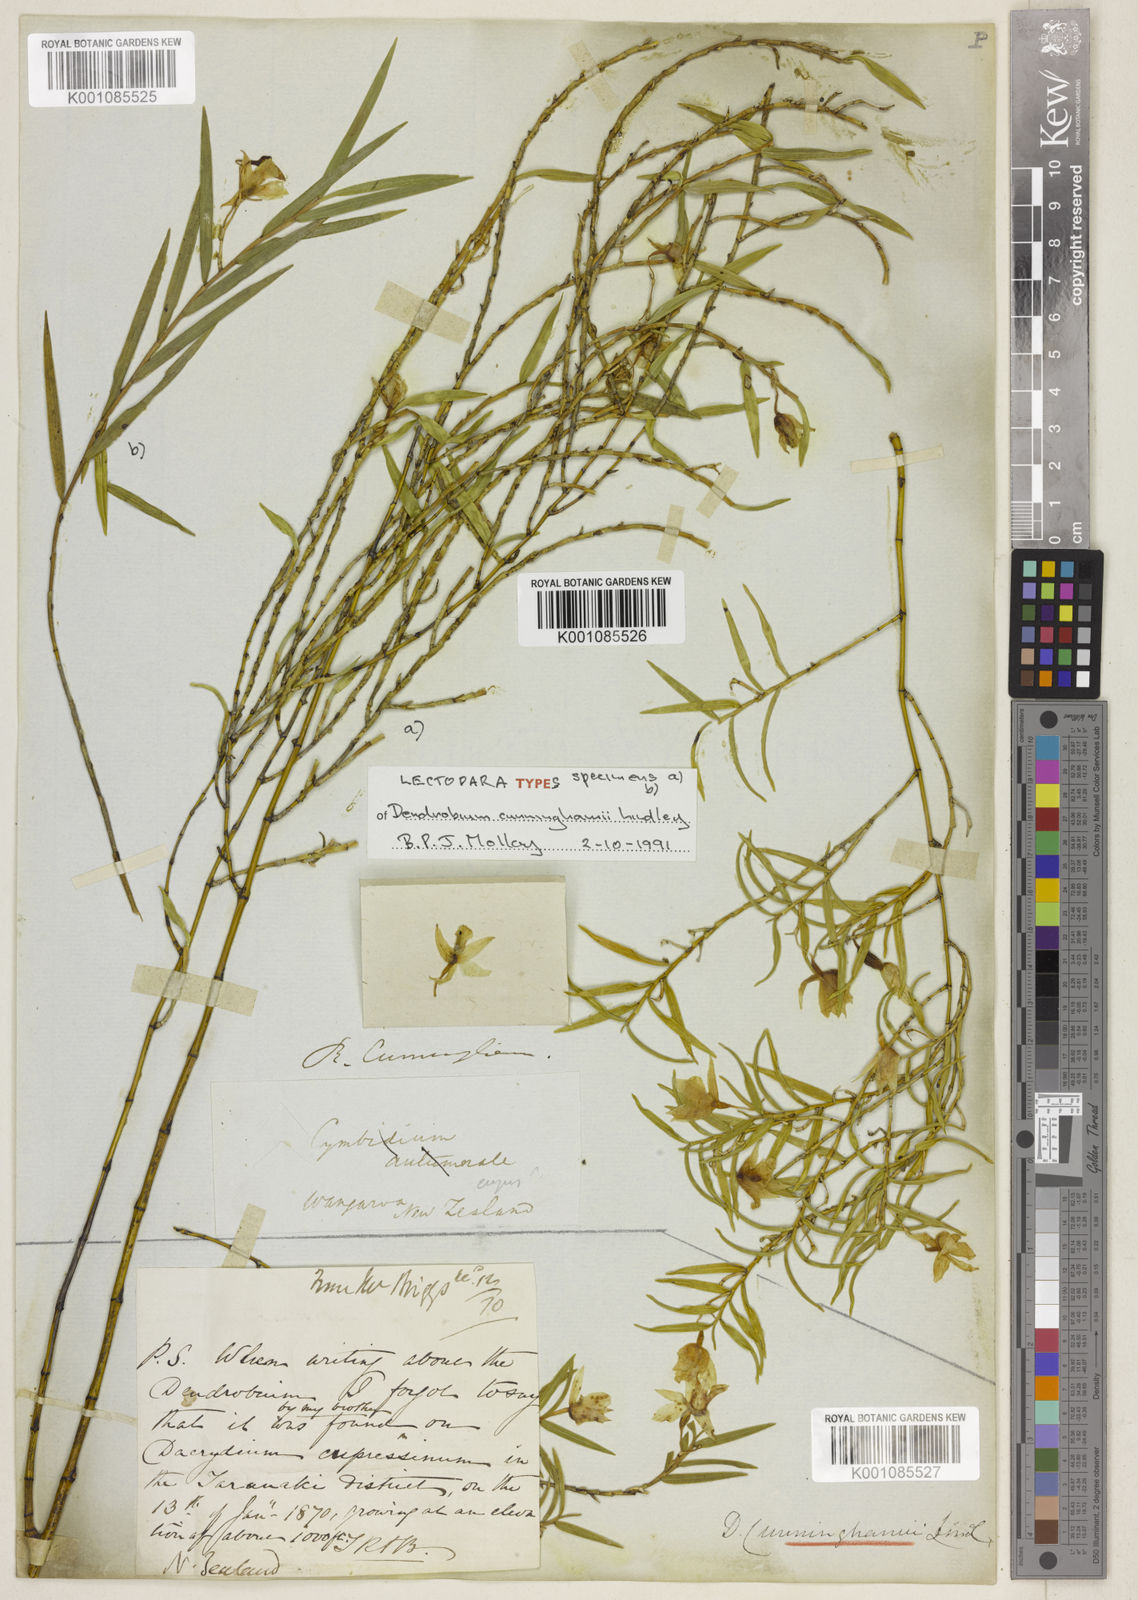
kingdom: Plantae
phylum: Tracheophyta
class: Liliopsida
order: Asparagales
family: Orchidaceae
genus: Dendrobium
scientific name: Dendrobium cunninghamii
